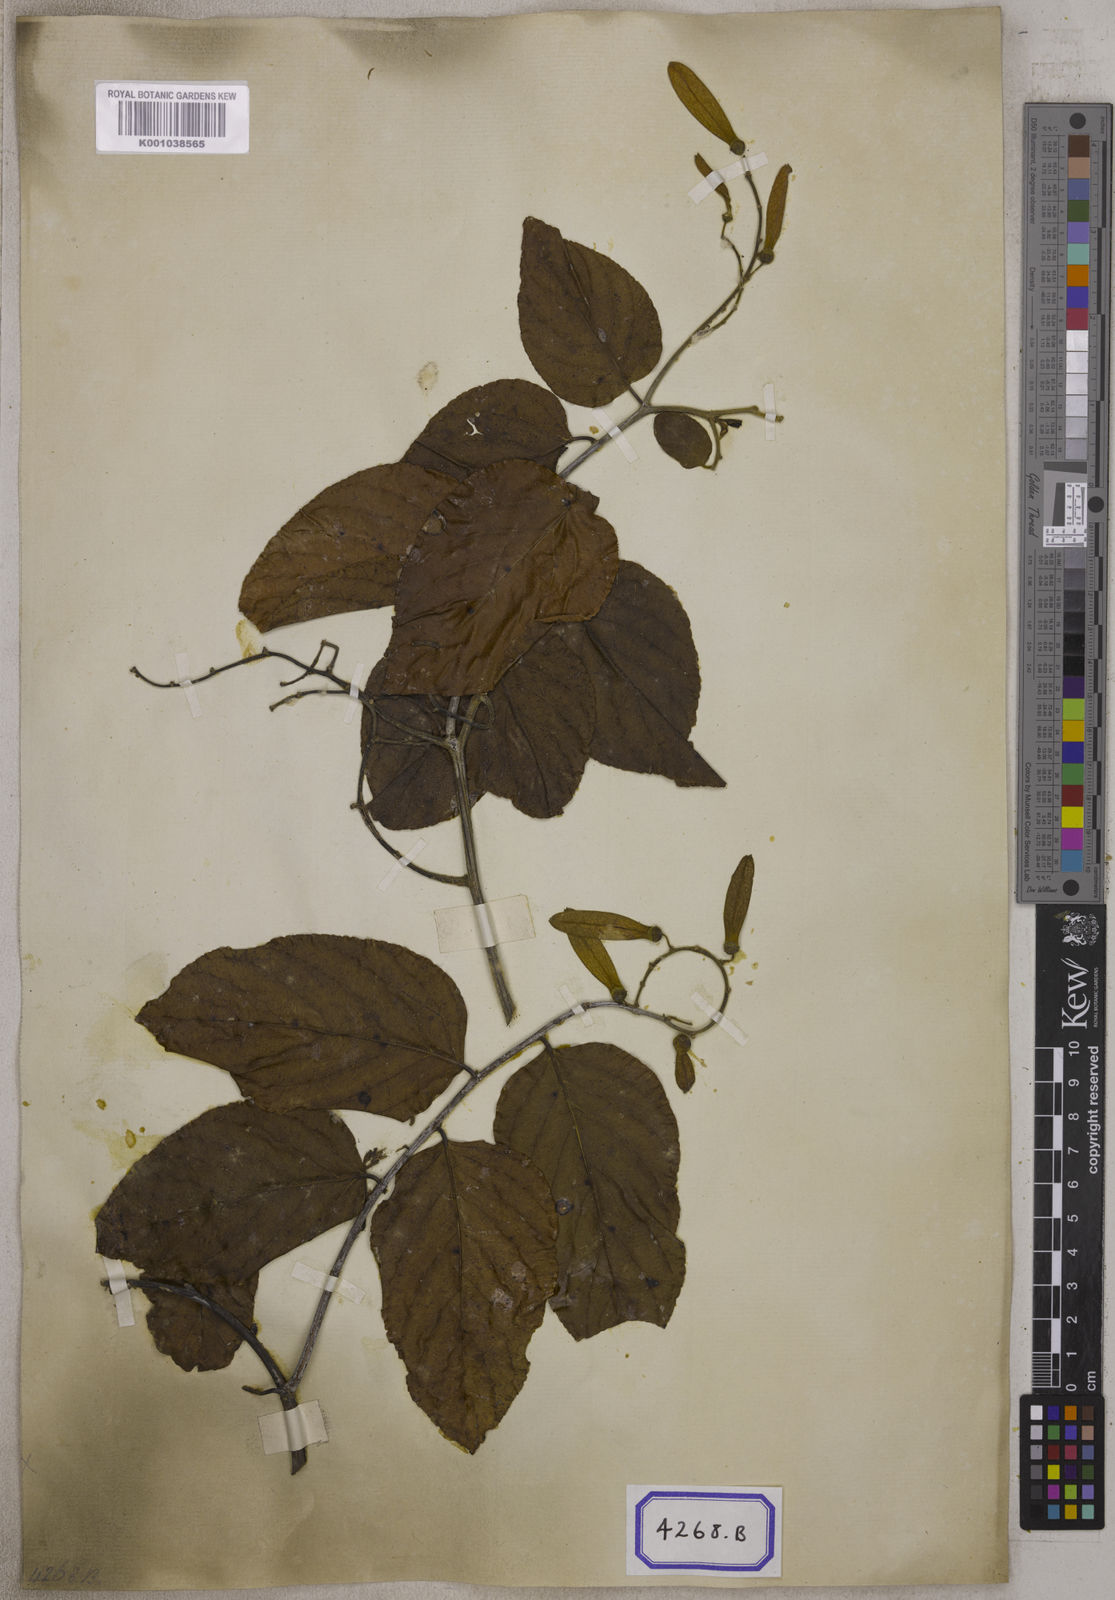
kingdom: Plantae
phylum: Tracheophyta
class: Magnoliopsida
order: Rosales
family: Rhamnaceae
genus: Ventilago
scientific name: Ventilago madraspatana
